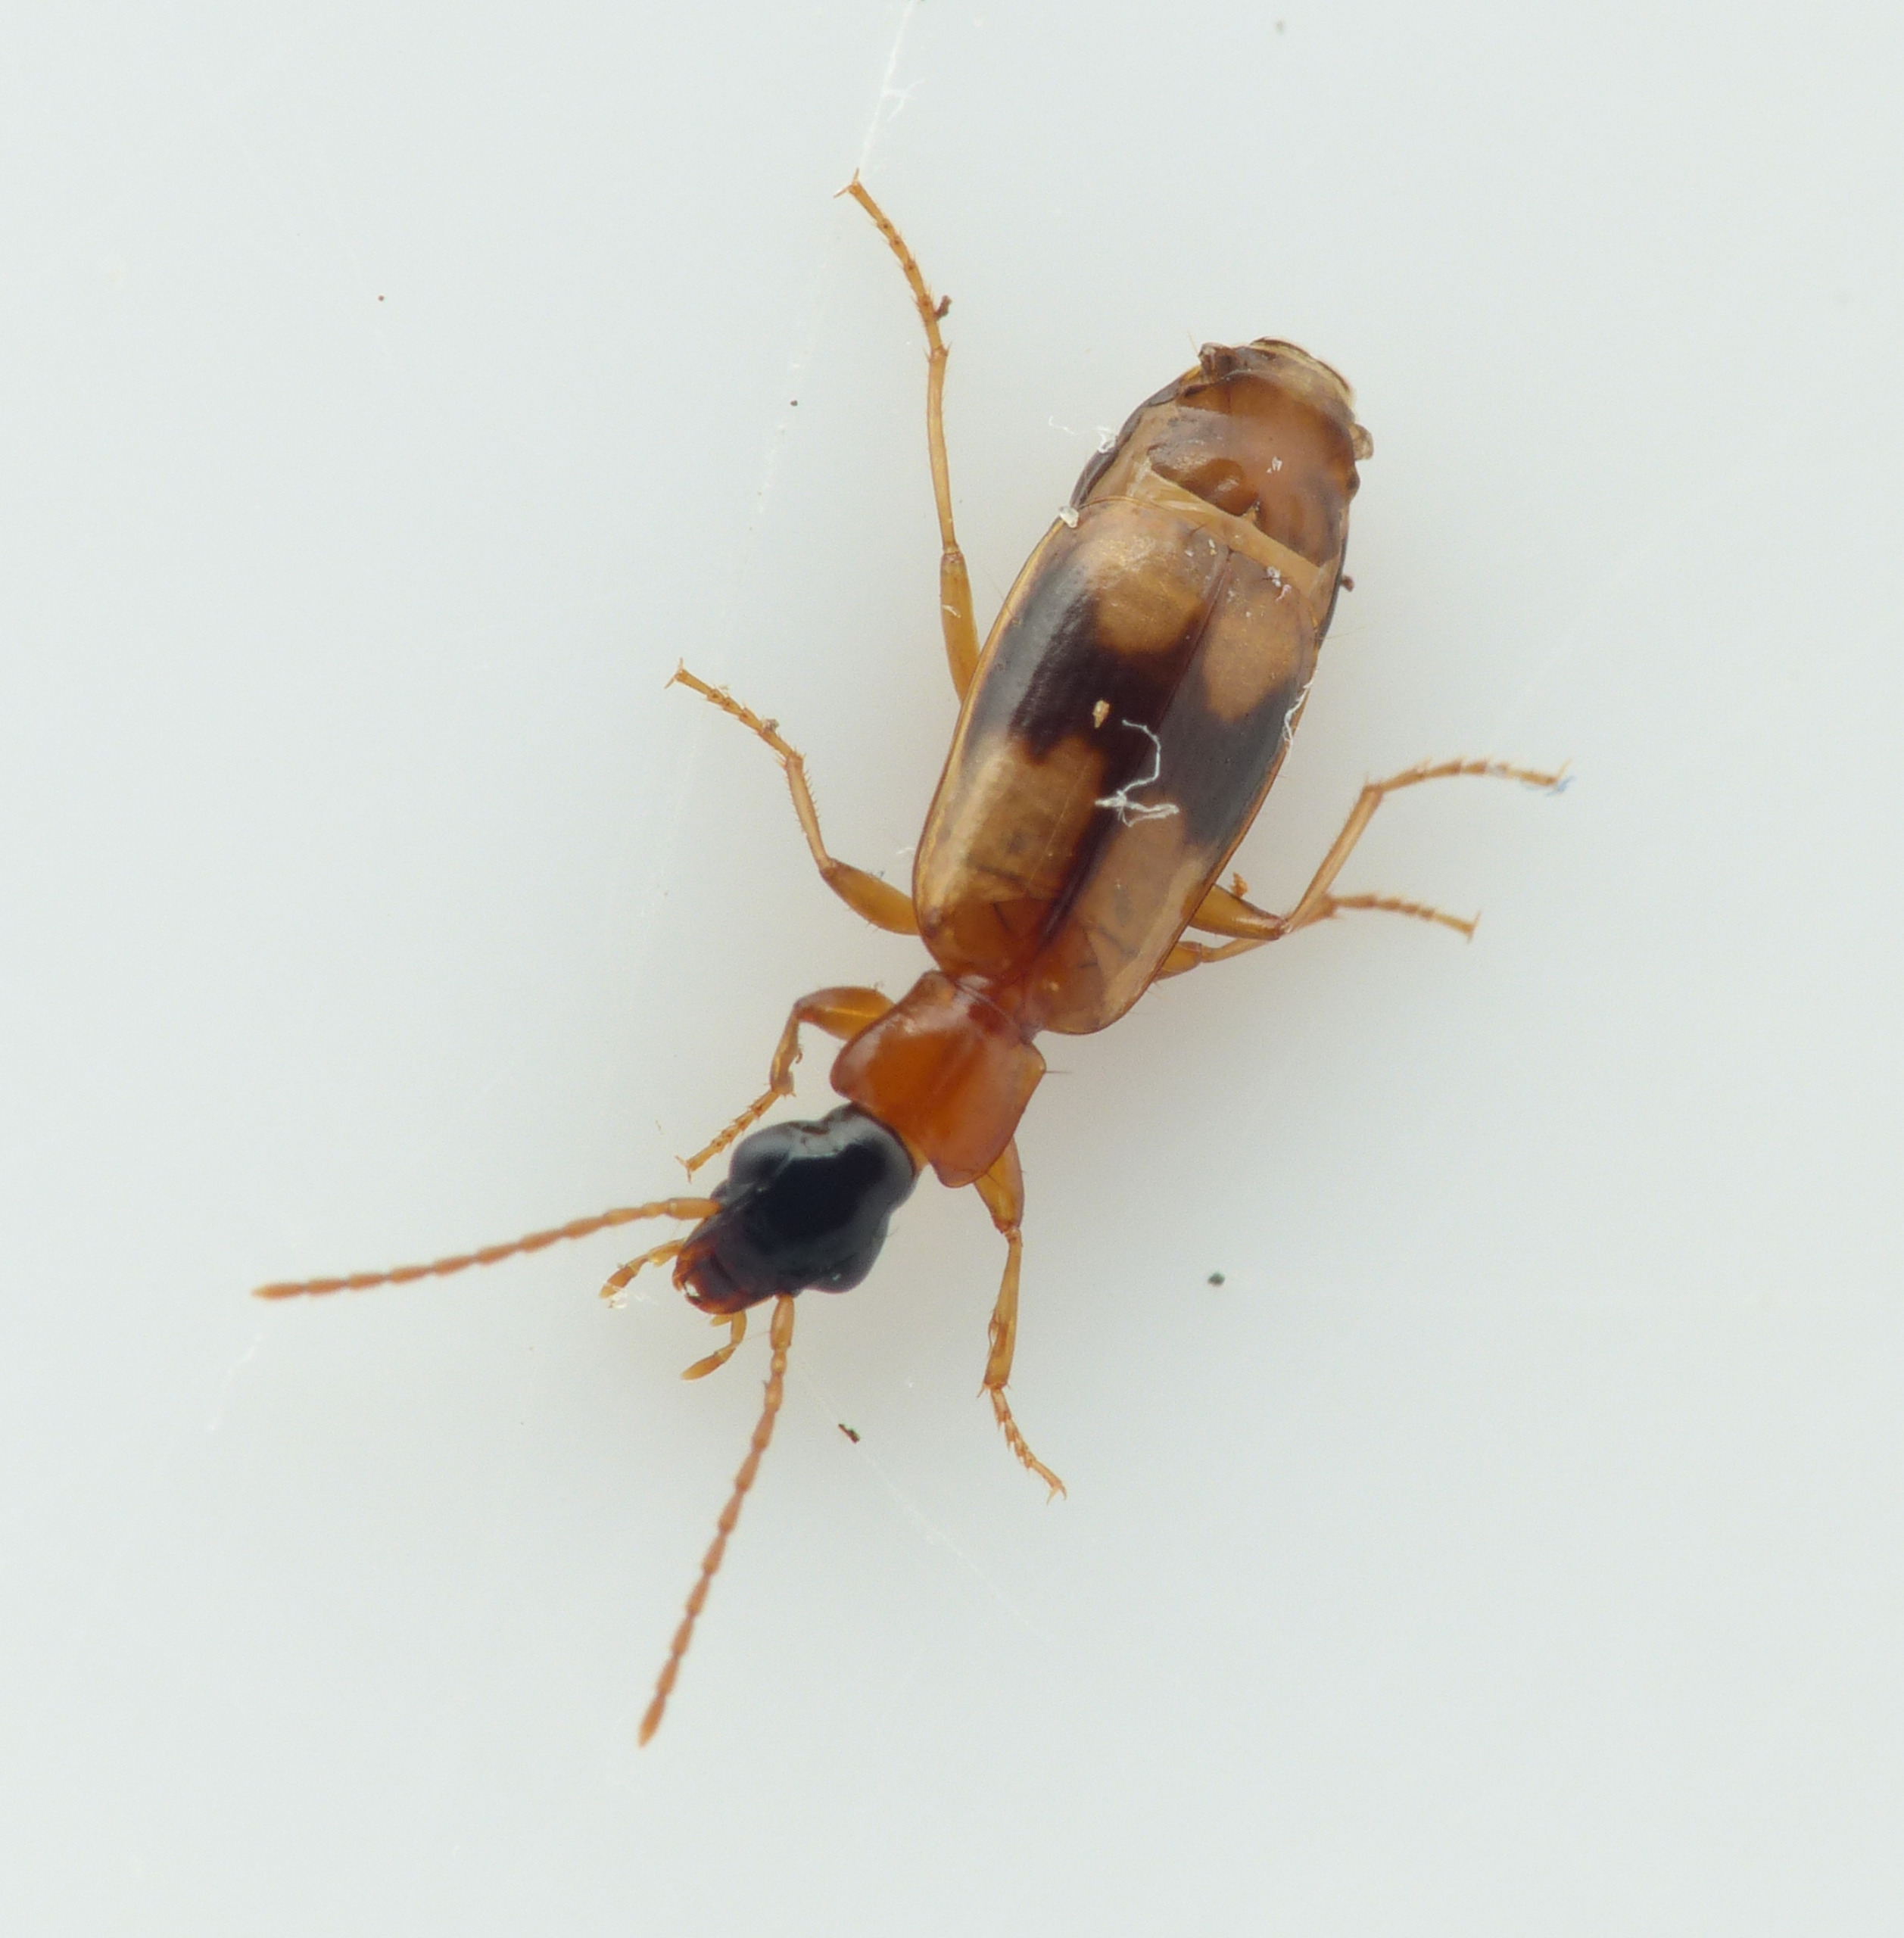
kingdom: Animalia
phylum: Arthropoda
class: Insecta
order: Coleoptera
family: Carabidae
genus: Philorhizus
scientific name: Philorhizus sigma
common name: Båndtegnet sivløber
